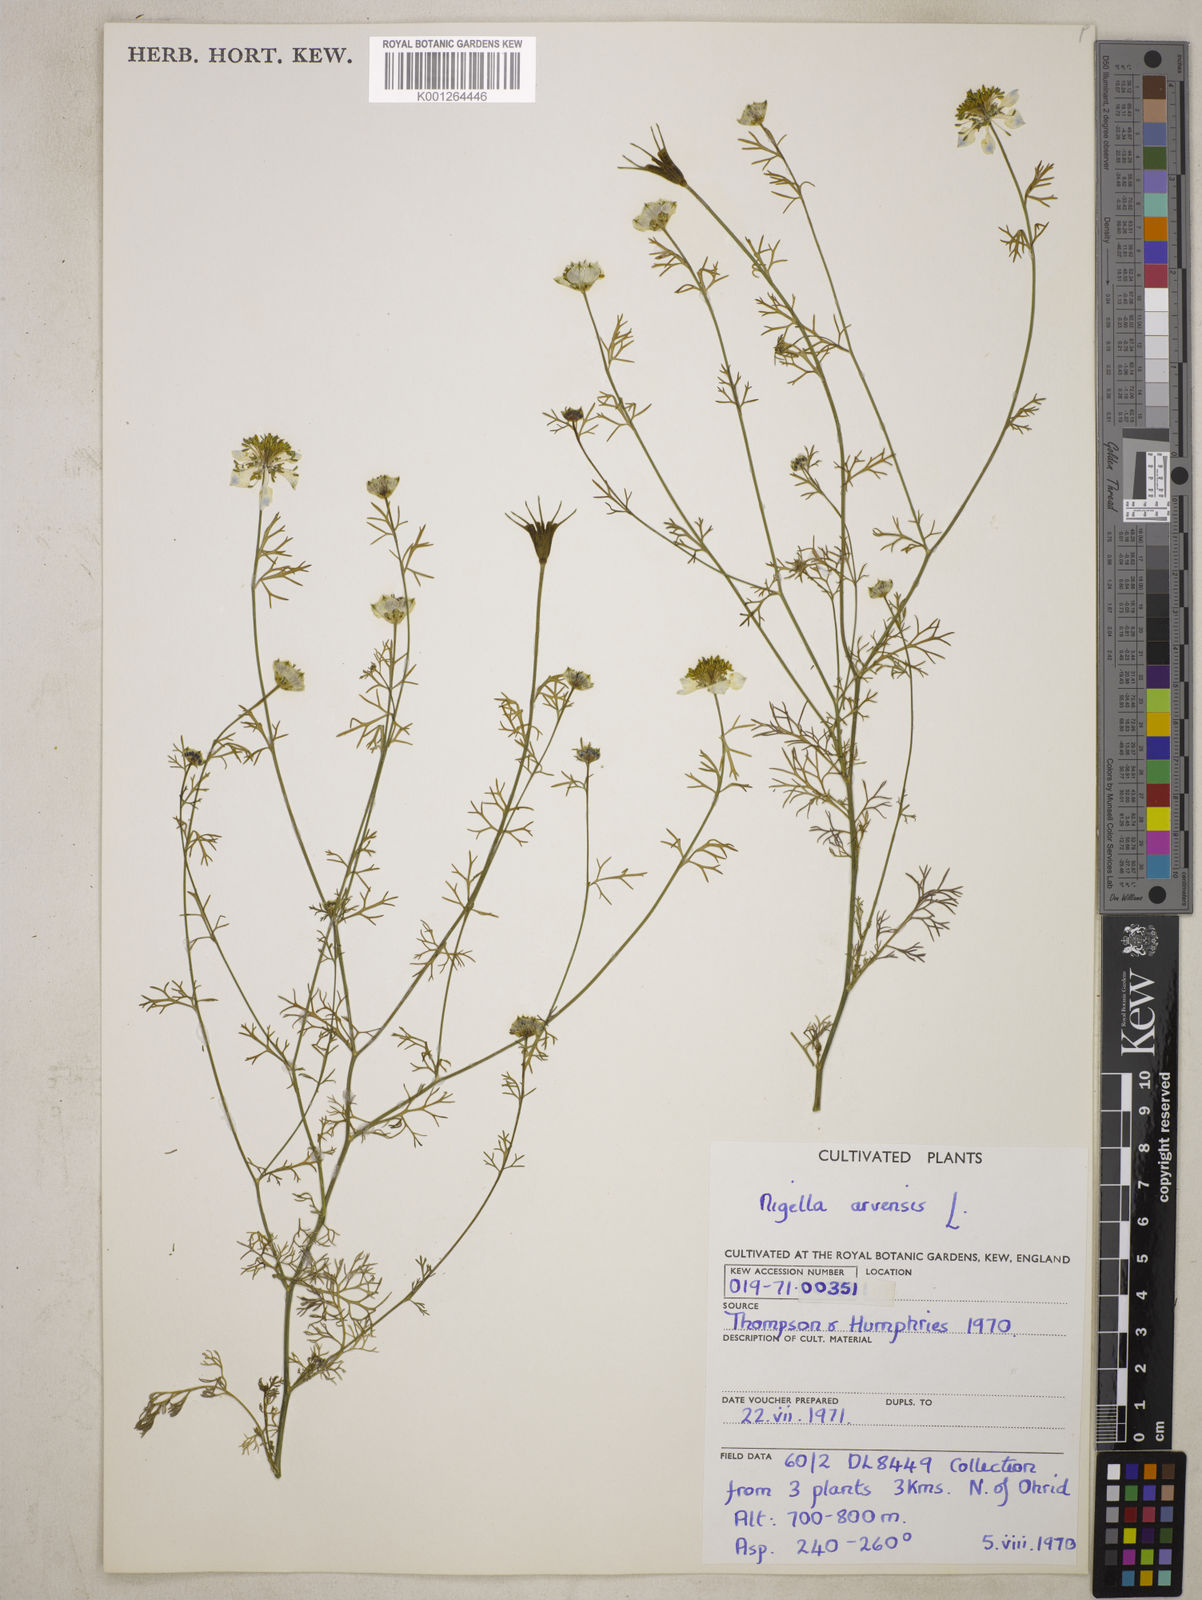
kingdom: Plantae
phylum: Tracheophyta
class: Magnoliopsida
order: Ranunculales
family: Ranunculaceae
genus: Nigella
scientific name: Nigella arvensis
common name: Wild fennel-flower
